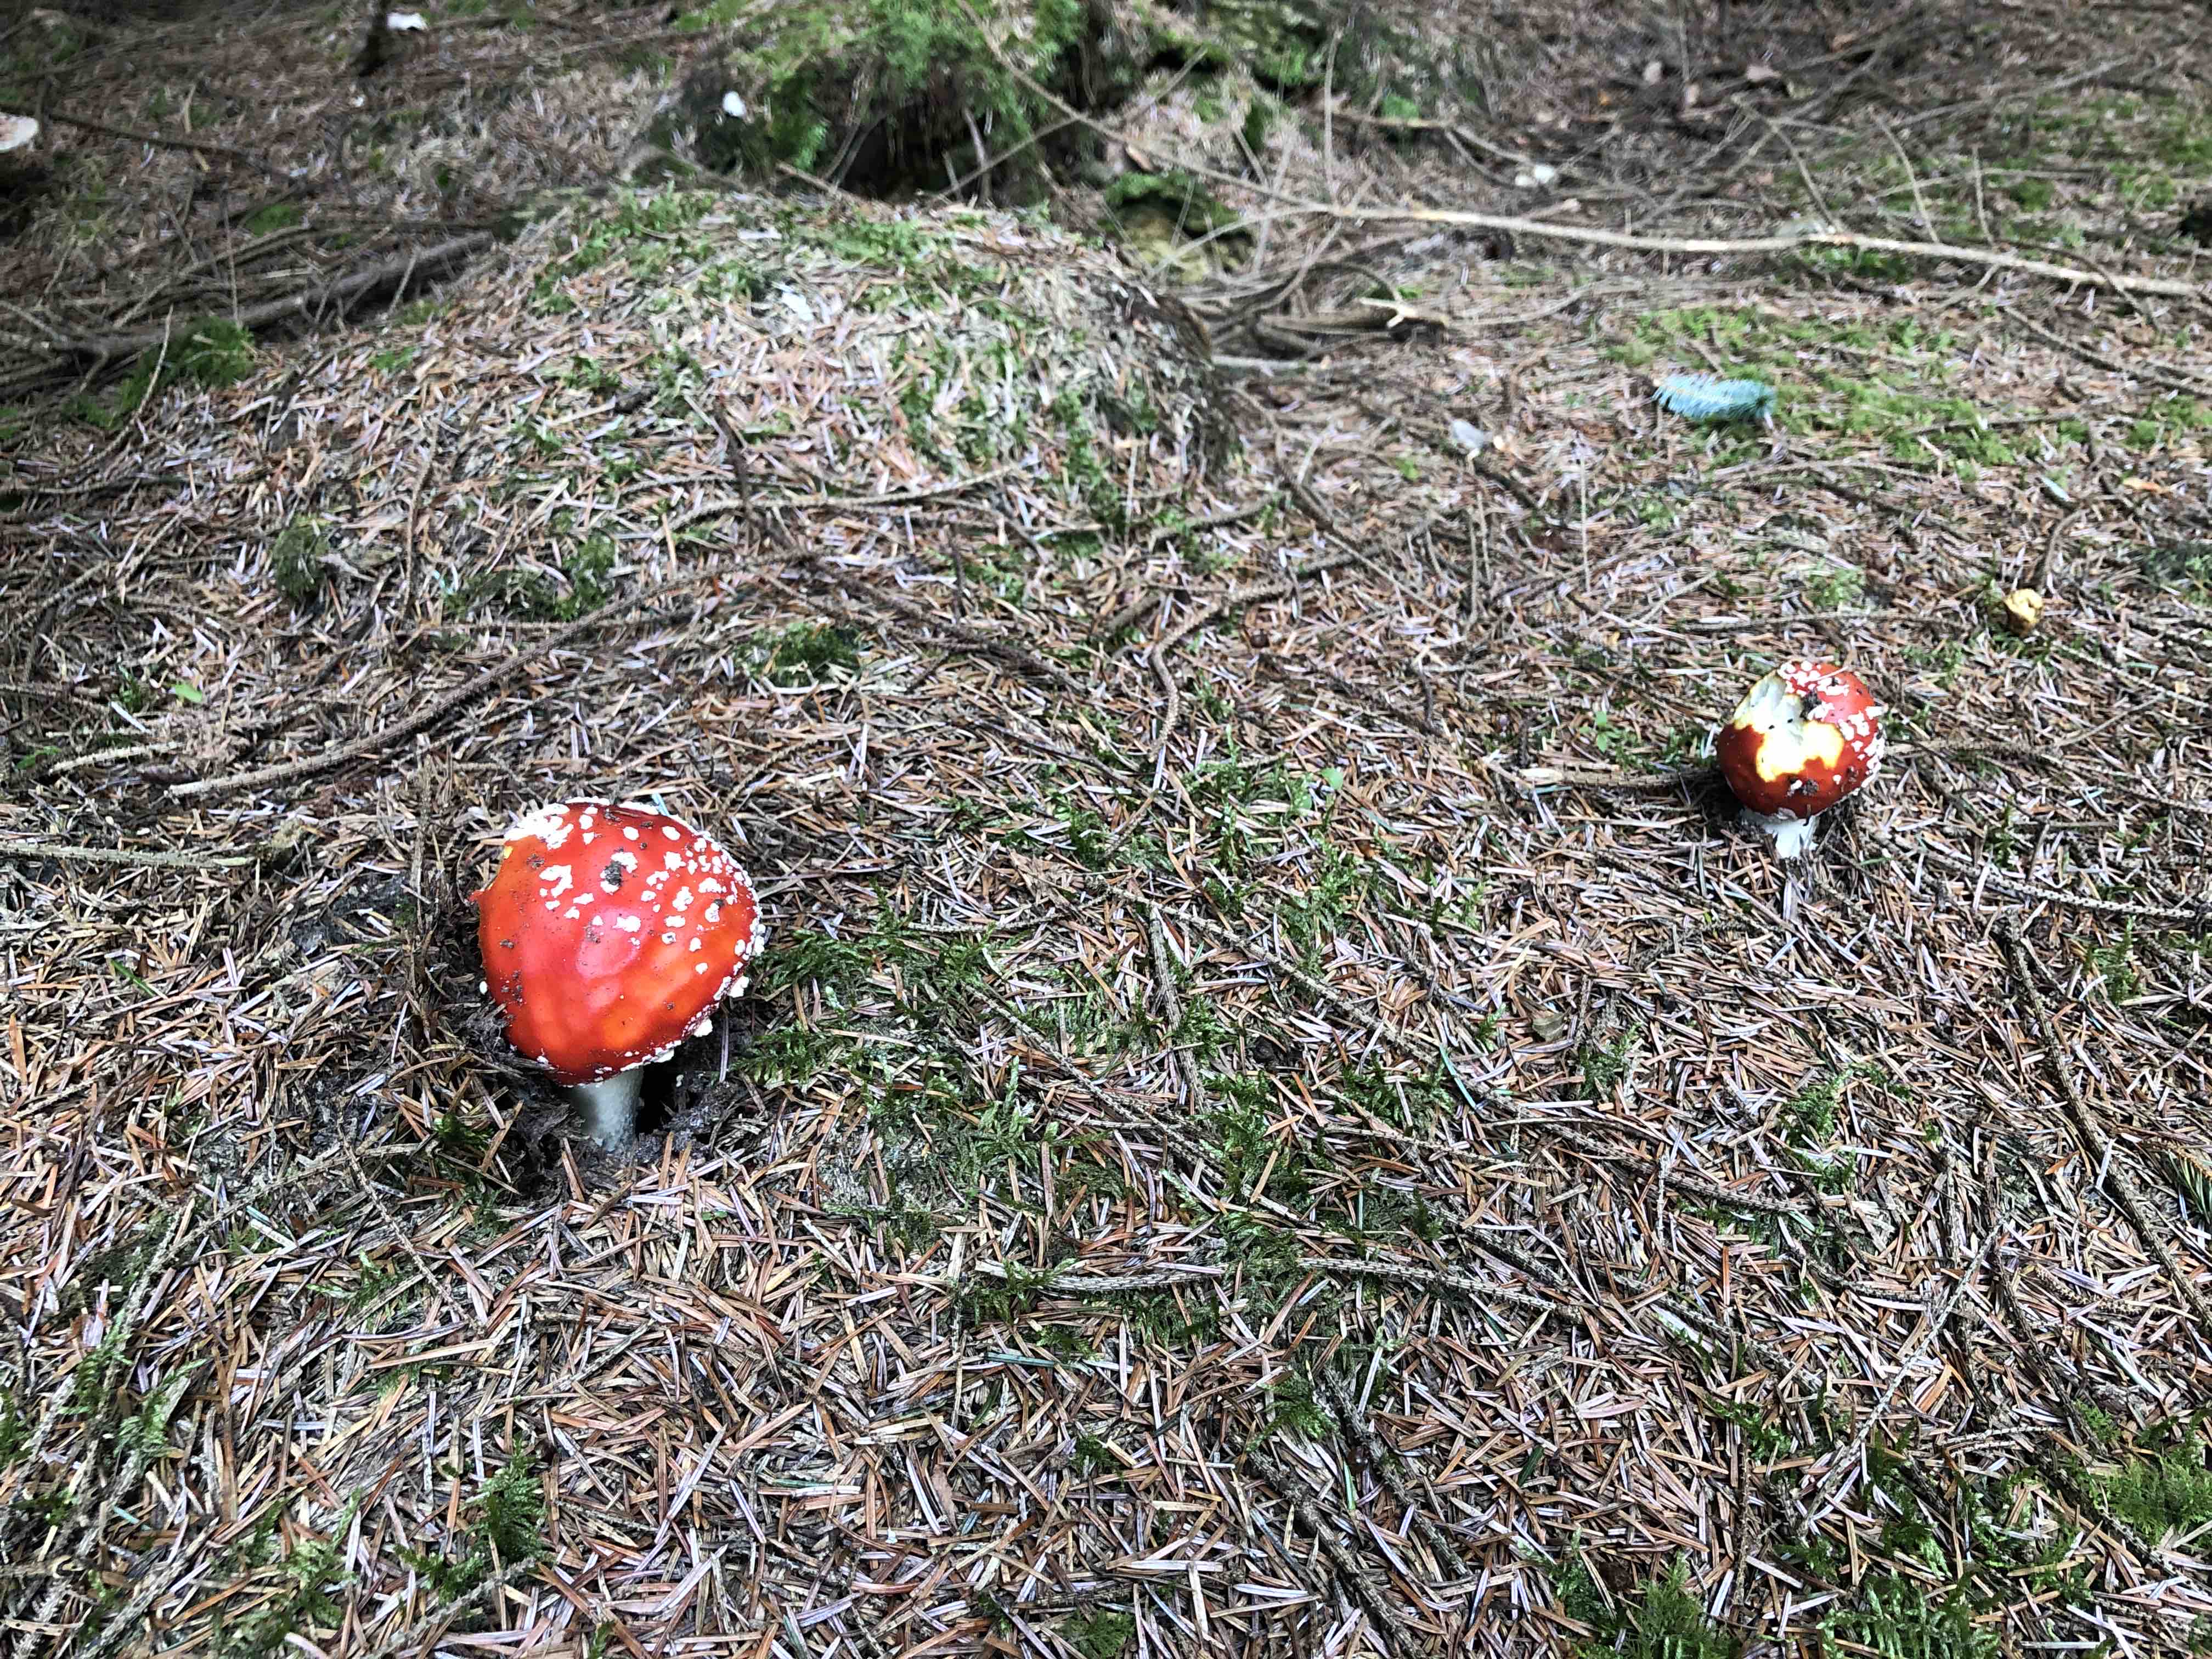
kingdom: Fungi
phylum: Basidiomycota
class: Agaricomycetes
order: Agaricales
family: Amanitaceae
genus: Amanita
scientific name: Amanita muscaria
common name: rød fluesvamp
